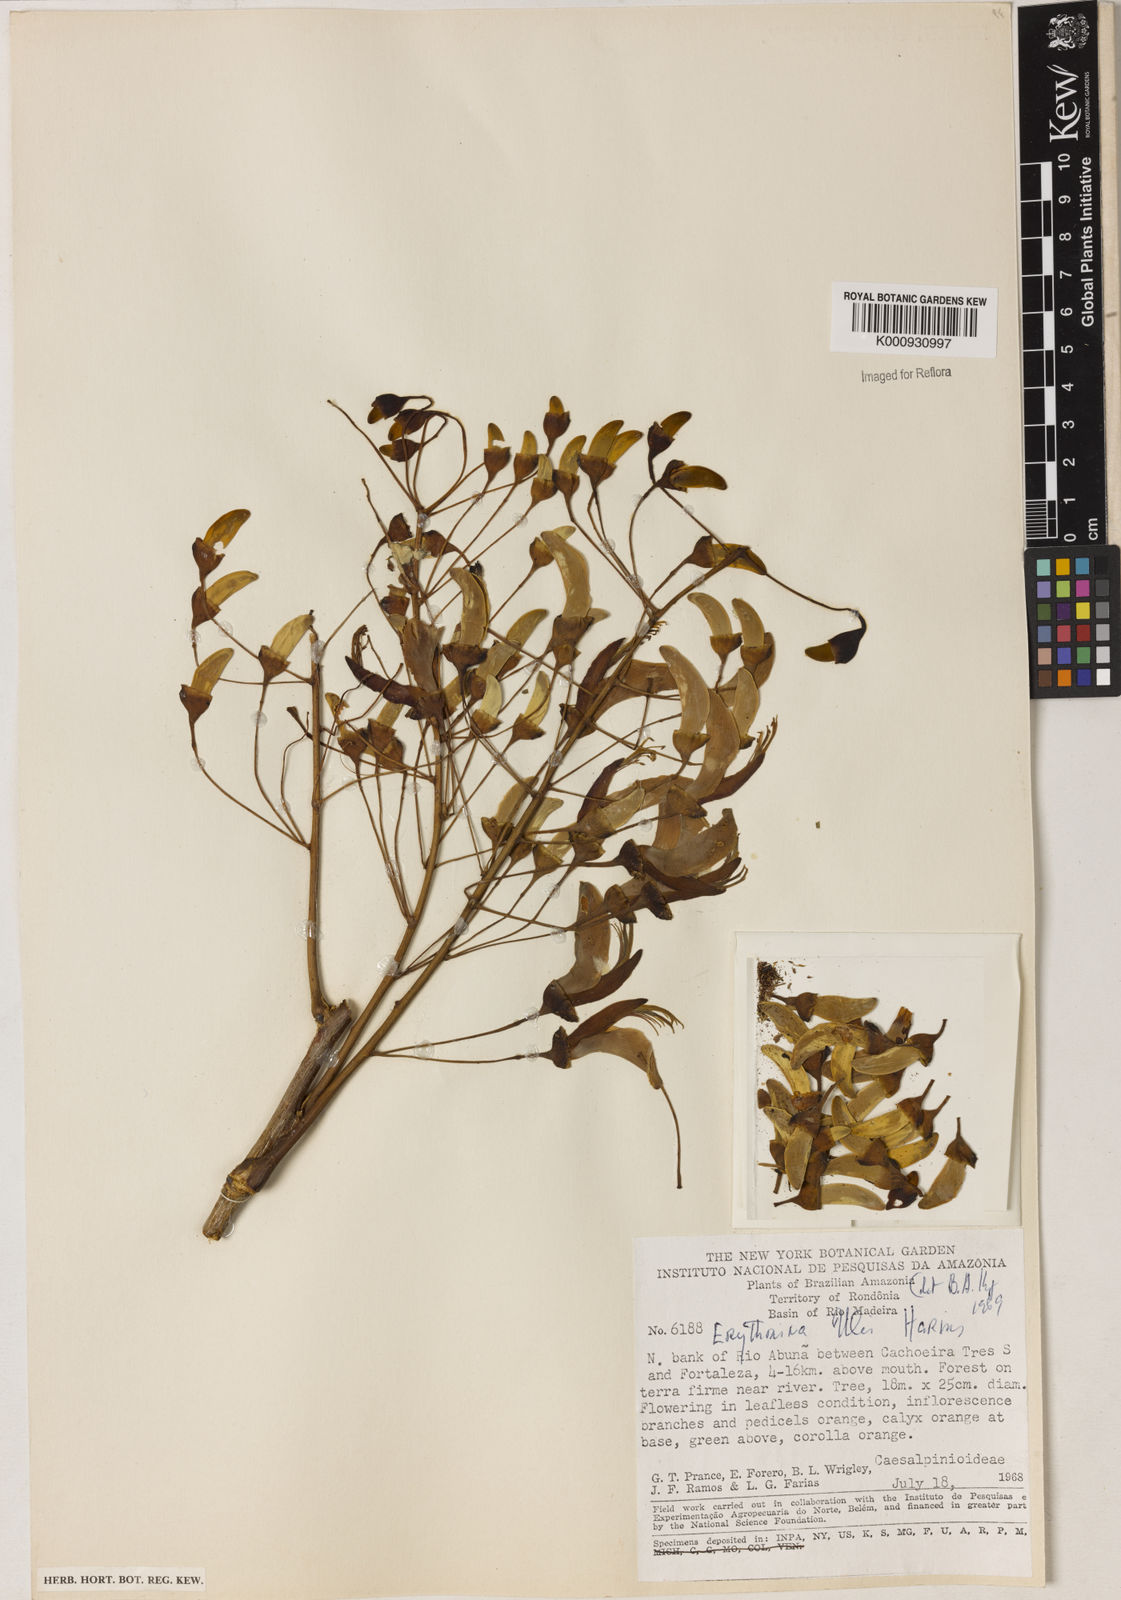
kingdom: Plantae
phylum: Tracheophyta
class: Magnoliopsida
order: Fabales
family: Fabaceae
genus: Erythrina
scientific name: Erythrina ulei
